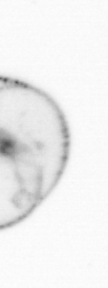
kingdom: Chromista
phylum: Myzozoa
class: Dinophyceae
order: Noctilucales
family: Noctilucaceae
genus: Noctiluca
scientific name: Noctiluca scintillans
